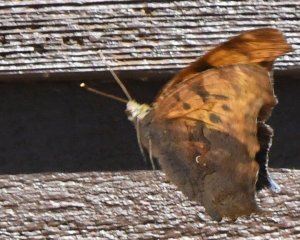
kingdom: Animalia
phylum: Arthropoda
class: Insecta
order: Lepidoptera
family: Nymphalidae
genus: Polygonia
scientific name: Polygonia interrogationis
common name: Question Mark
